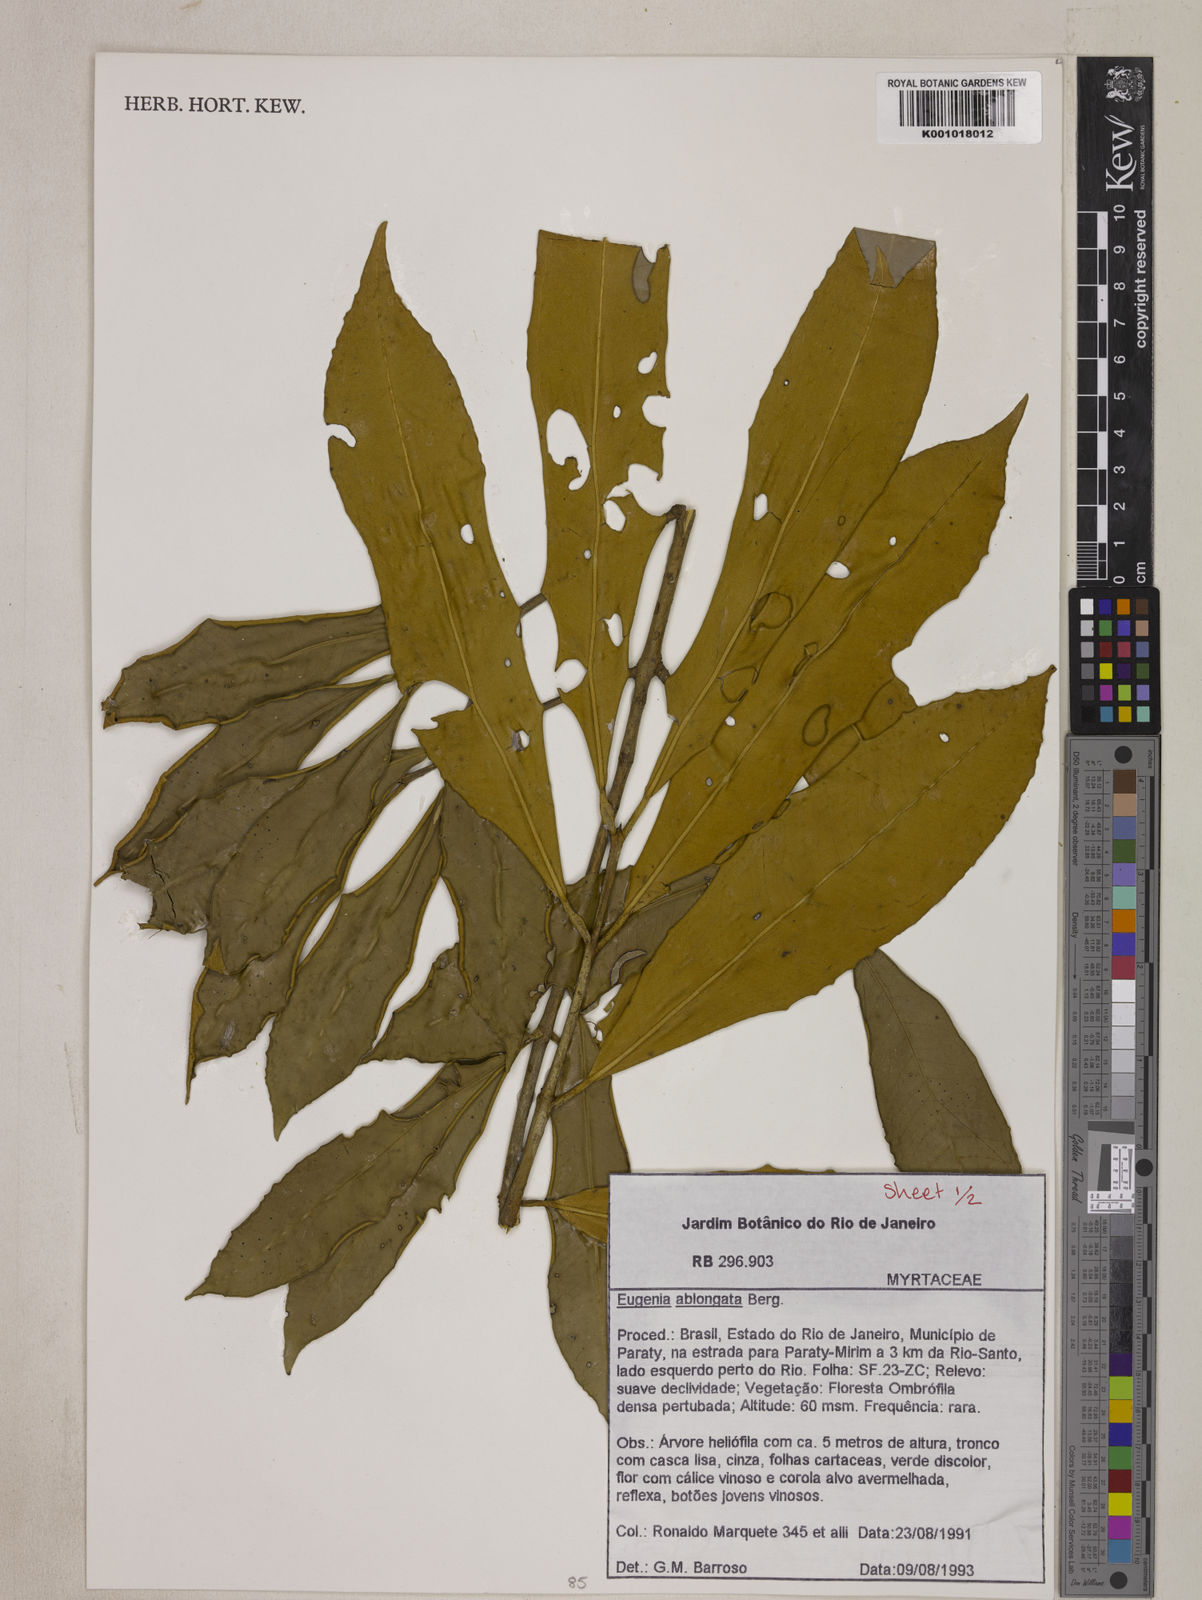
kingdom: Plantae
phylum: Tracheophyta
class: Magnoliopsida
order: Myrtales
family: Myrtaceae
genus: Eugenia
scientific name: Eugenia oblongata
